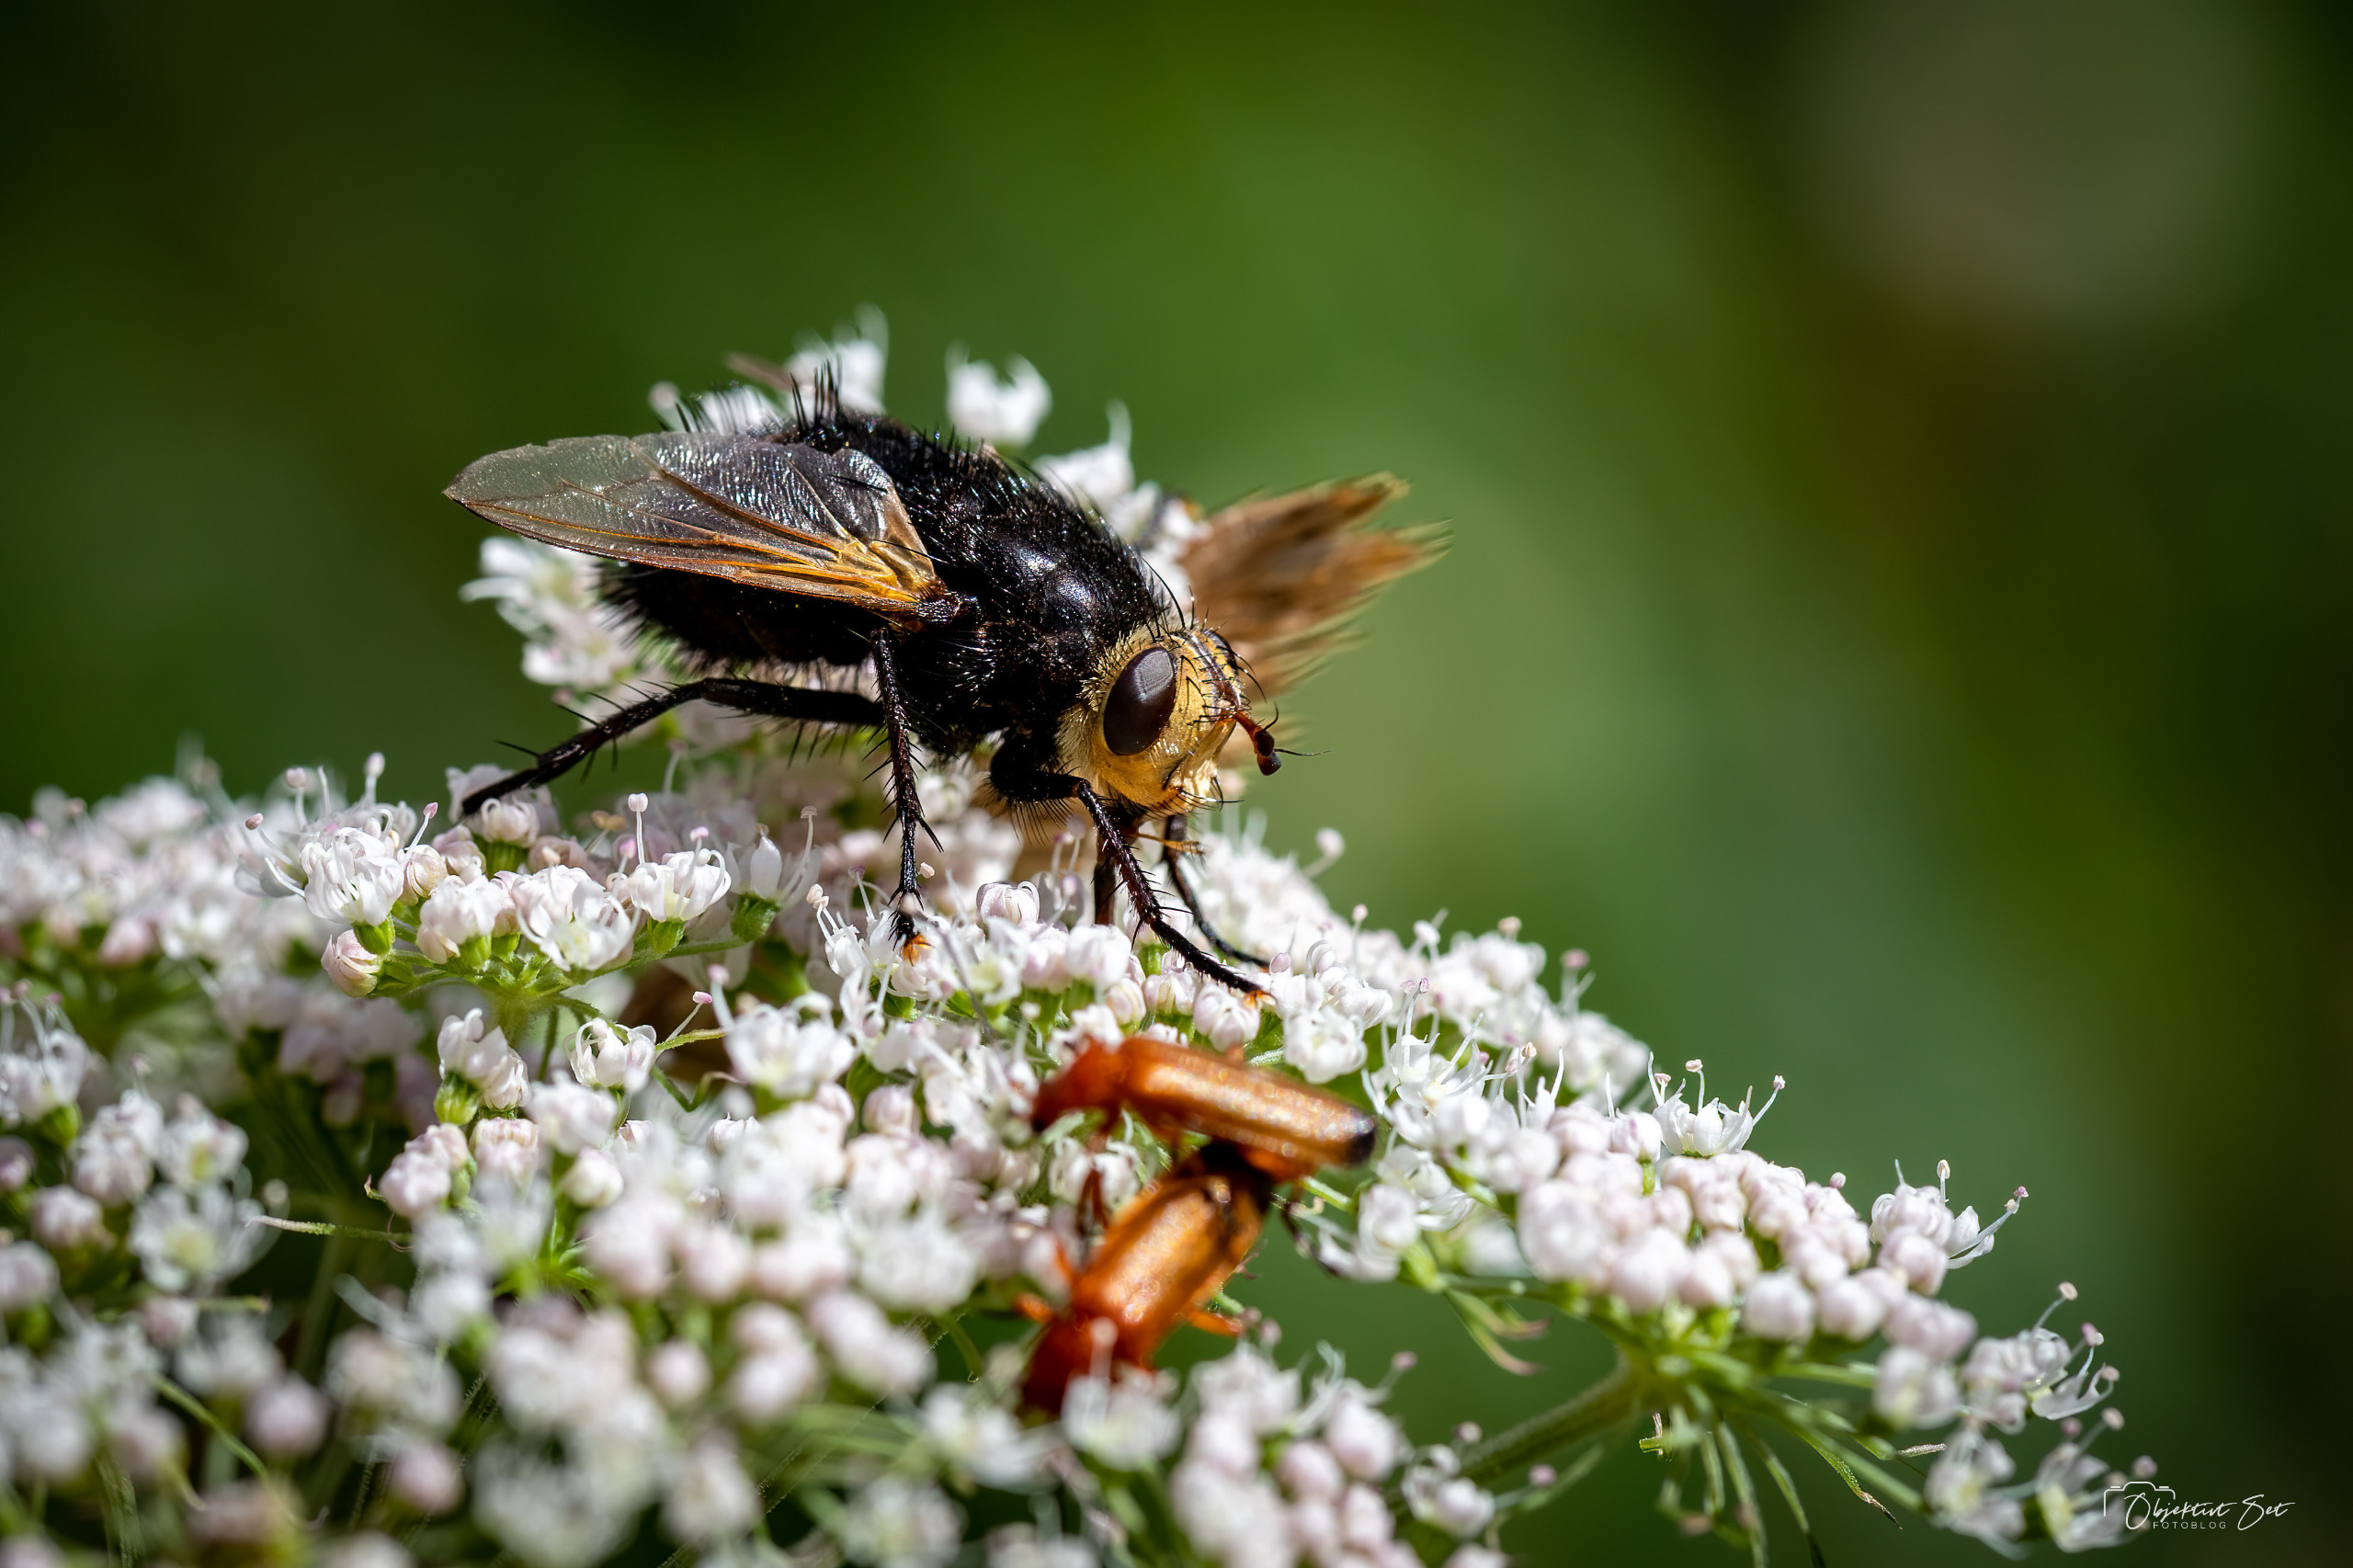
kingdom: Animalia
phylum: Arthropoda
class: Insecta
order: Diptera
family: Tachinidae
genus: Tachina
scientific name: Tachina grossa
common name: Kæmpefluen Harald
